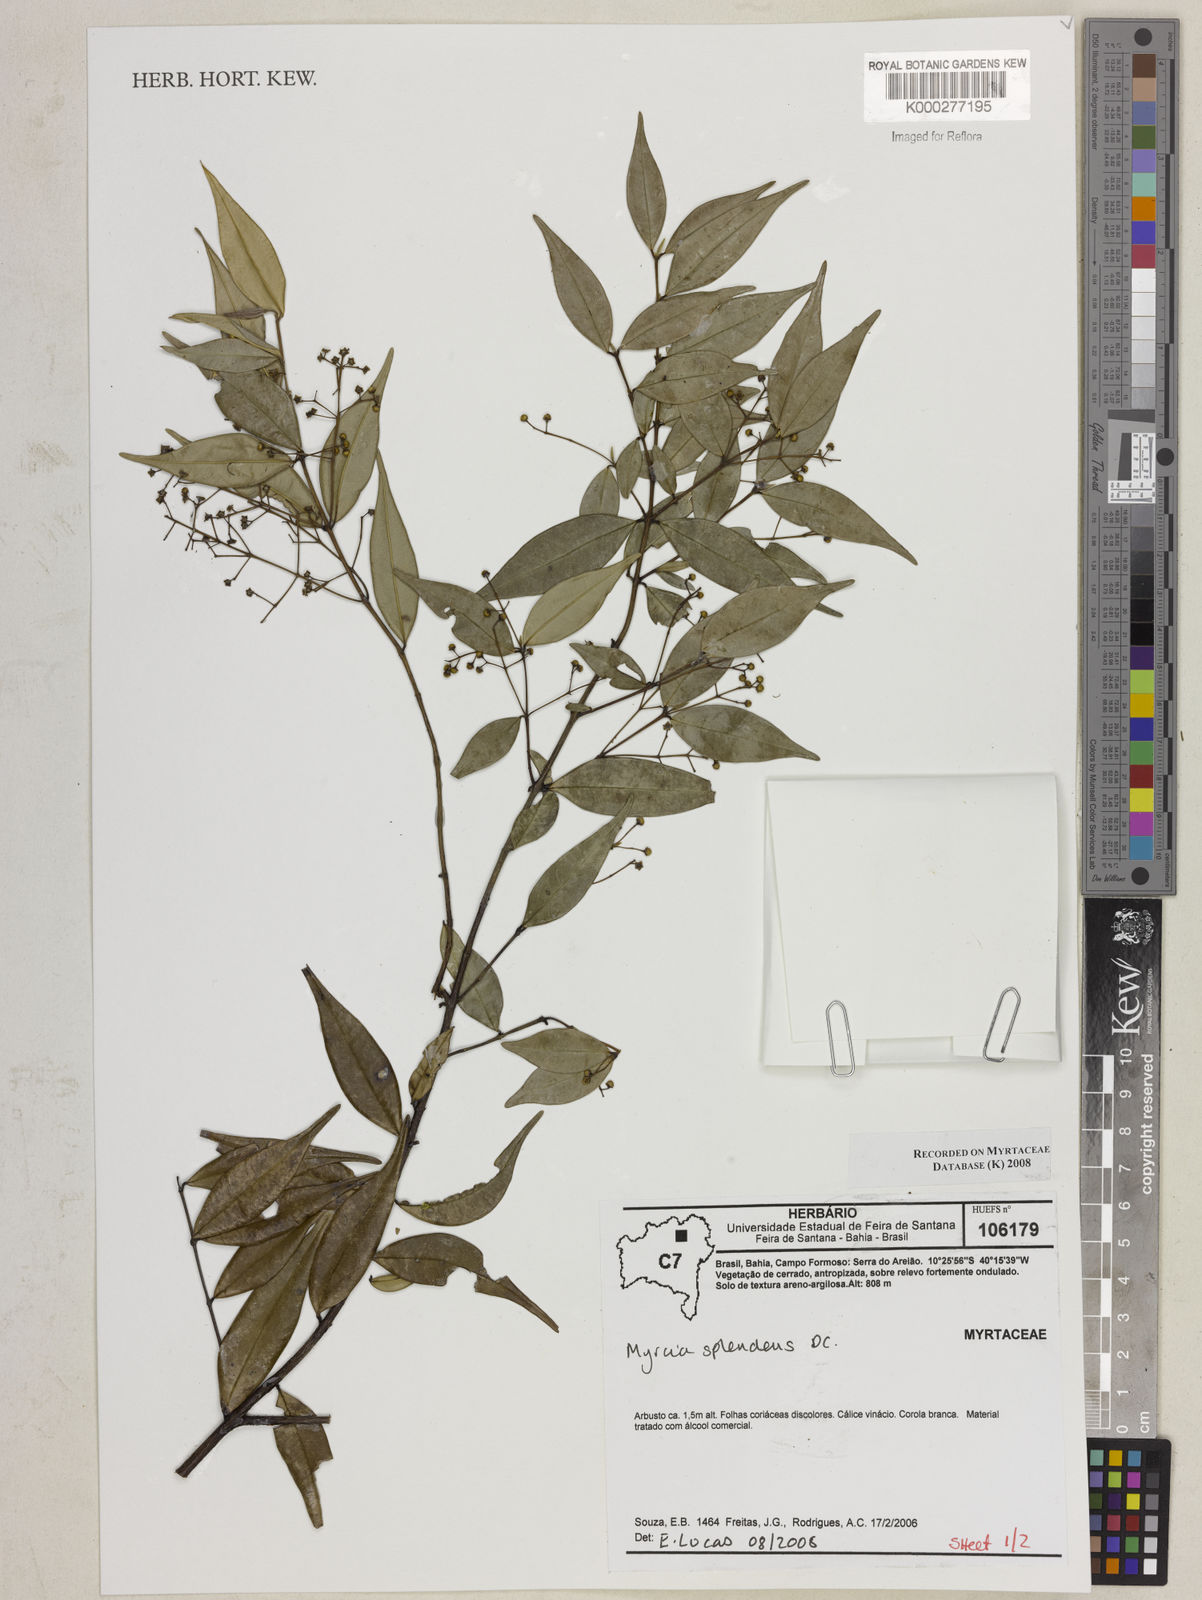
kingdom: Plantae
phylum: Tracheophyta
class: Magnoliopsida
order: Myrtales
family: Myrtaceae
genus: Myrcia
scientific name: Myrcia splendens
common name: Surinam cherry
